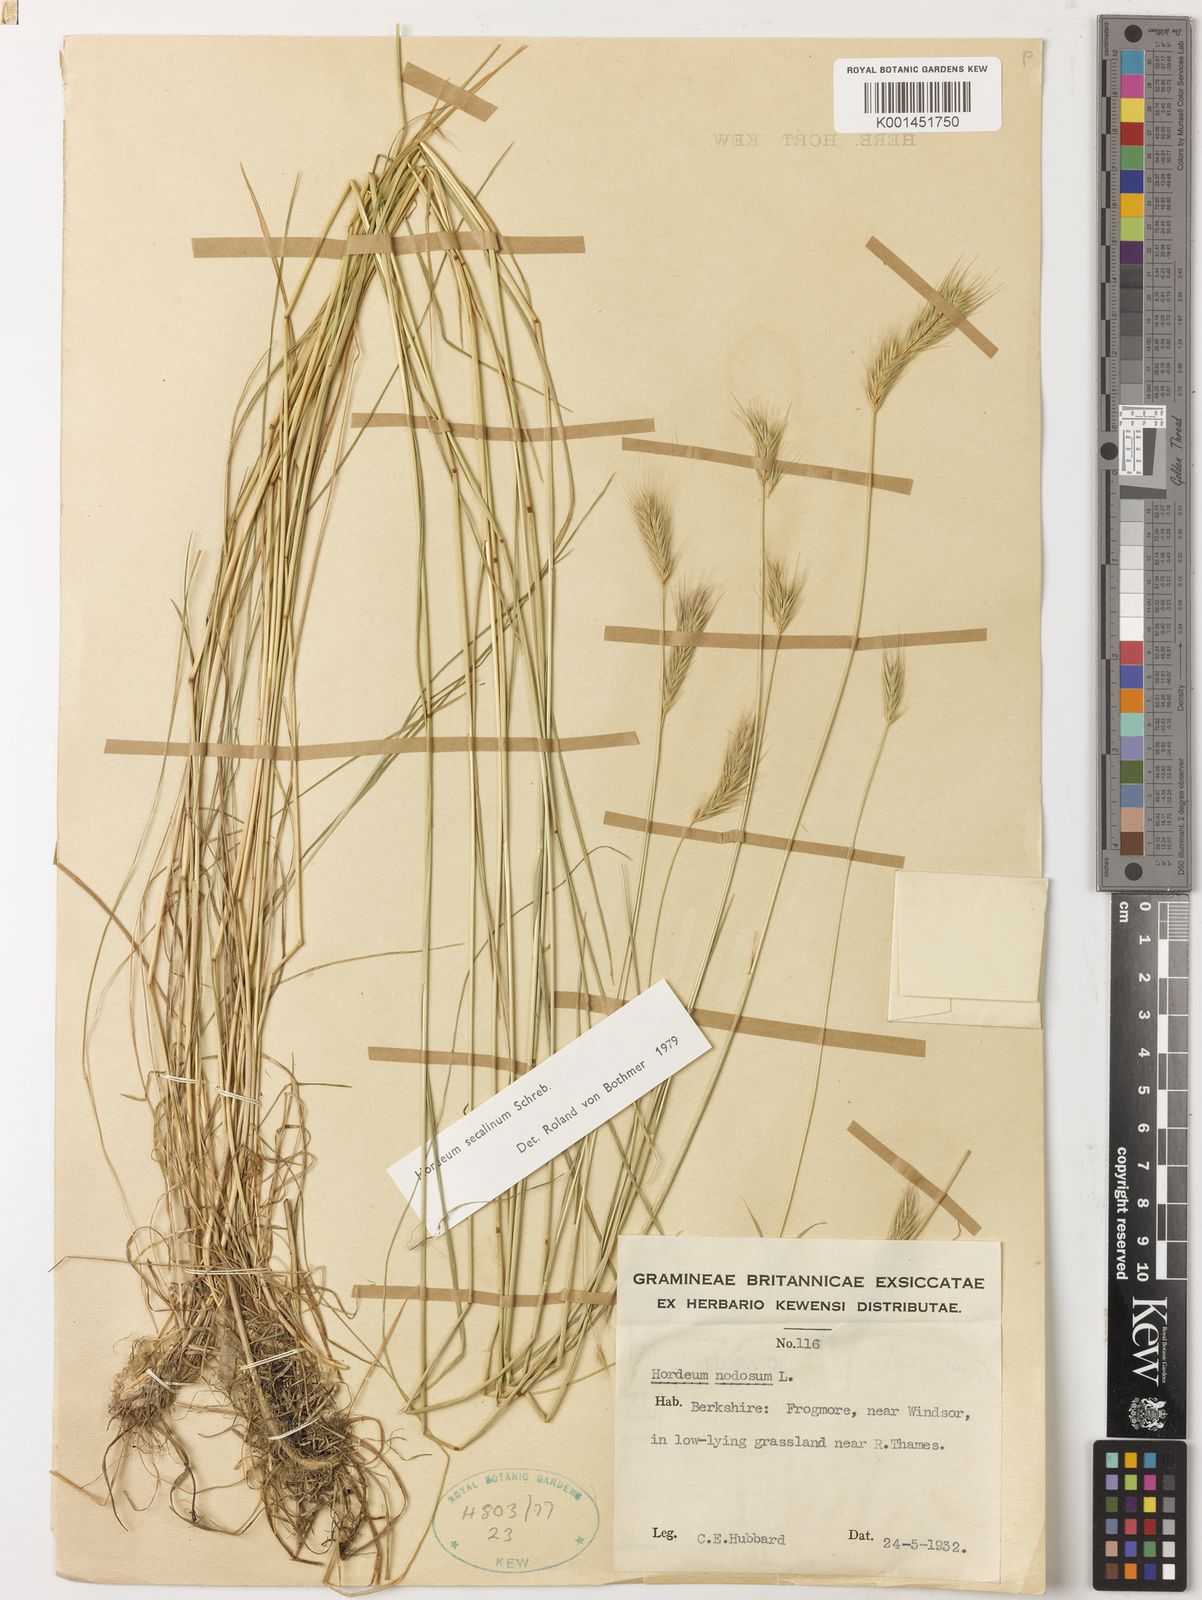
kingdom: Plantae
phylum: Tracheophyta
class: Liliopsida
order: Poales
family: Poaceae
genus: Hordeum
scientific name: Hordeum secalinum
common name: Meadow barley
